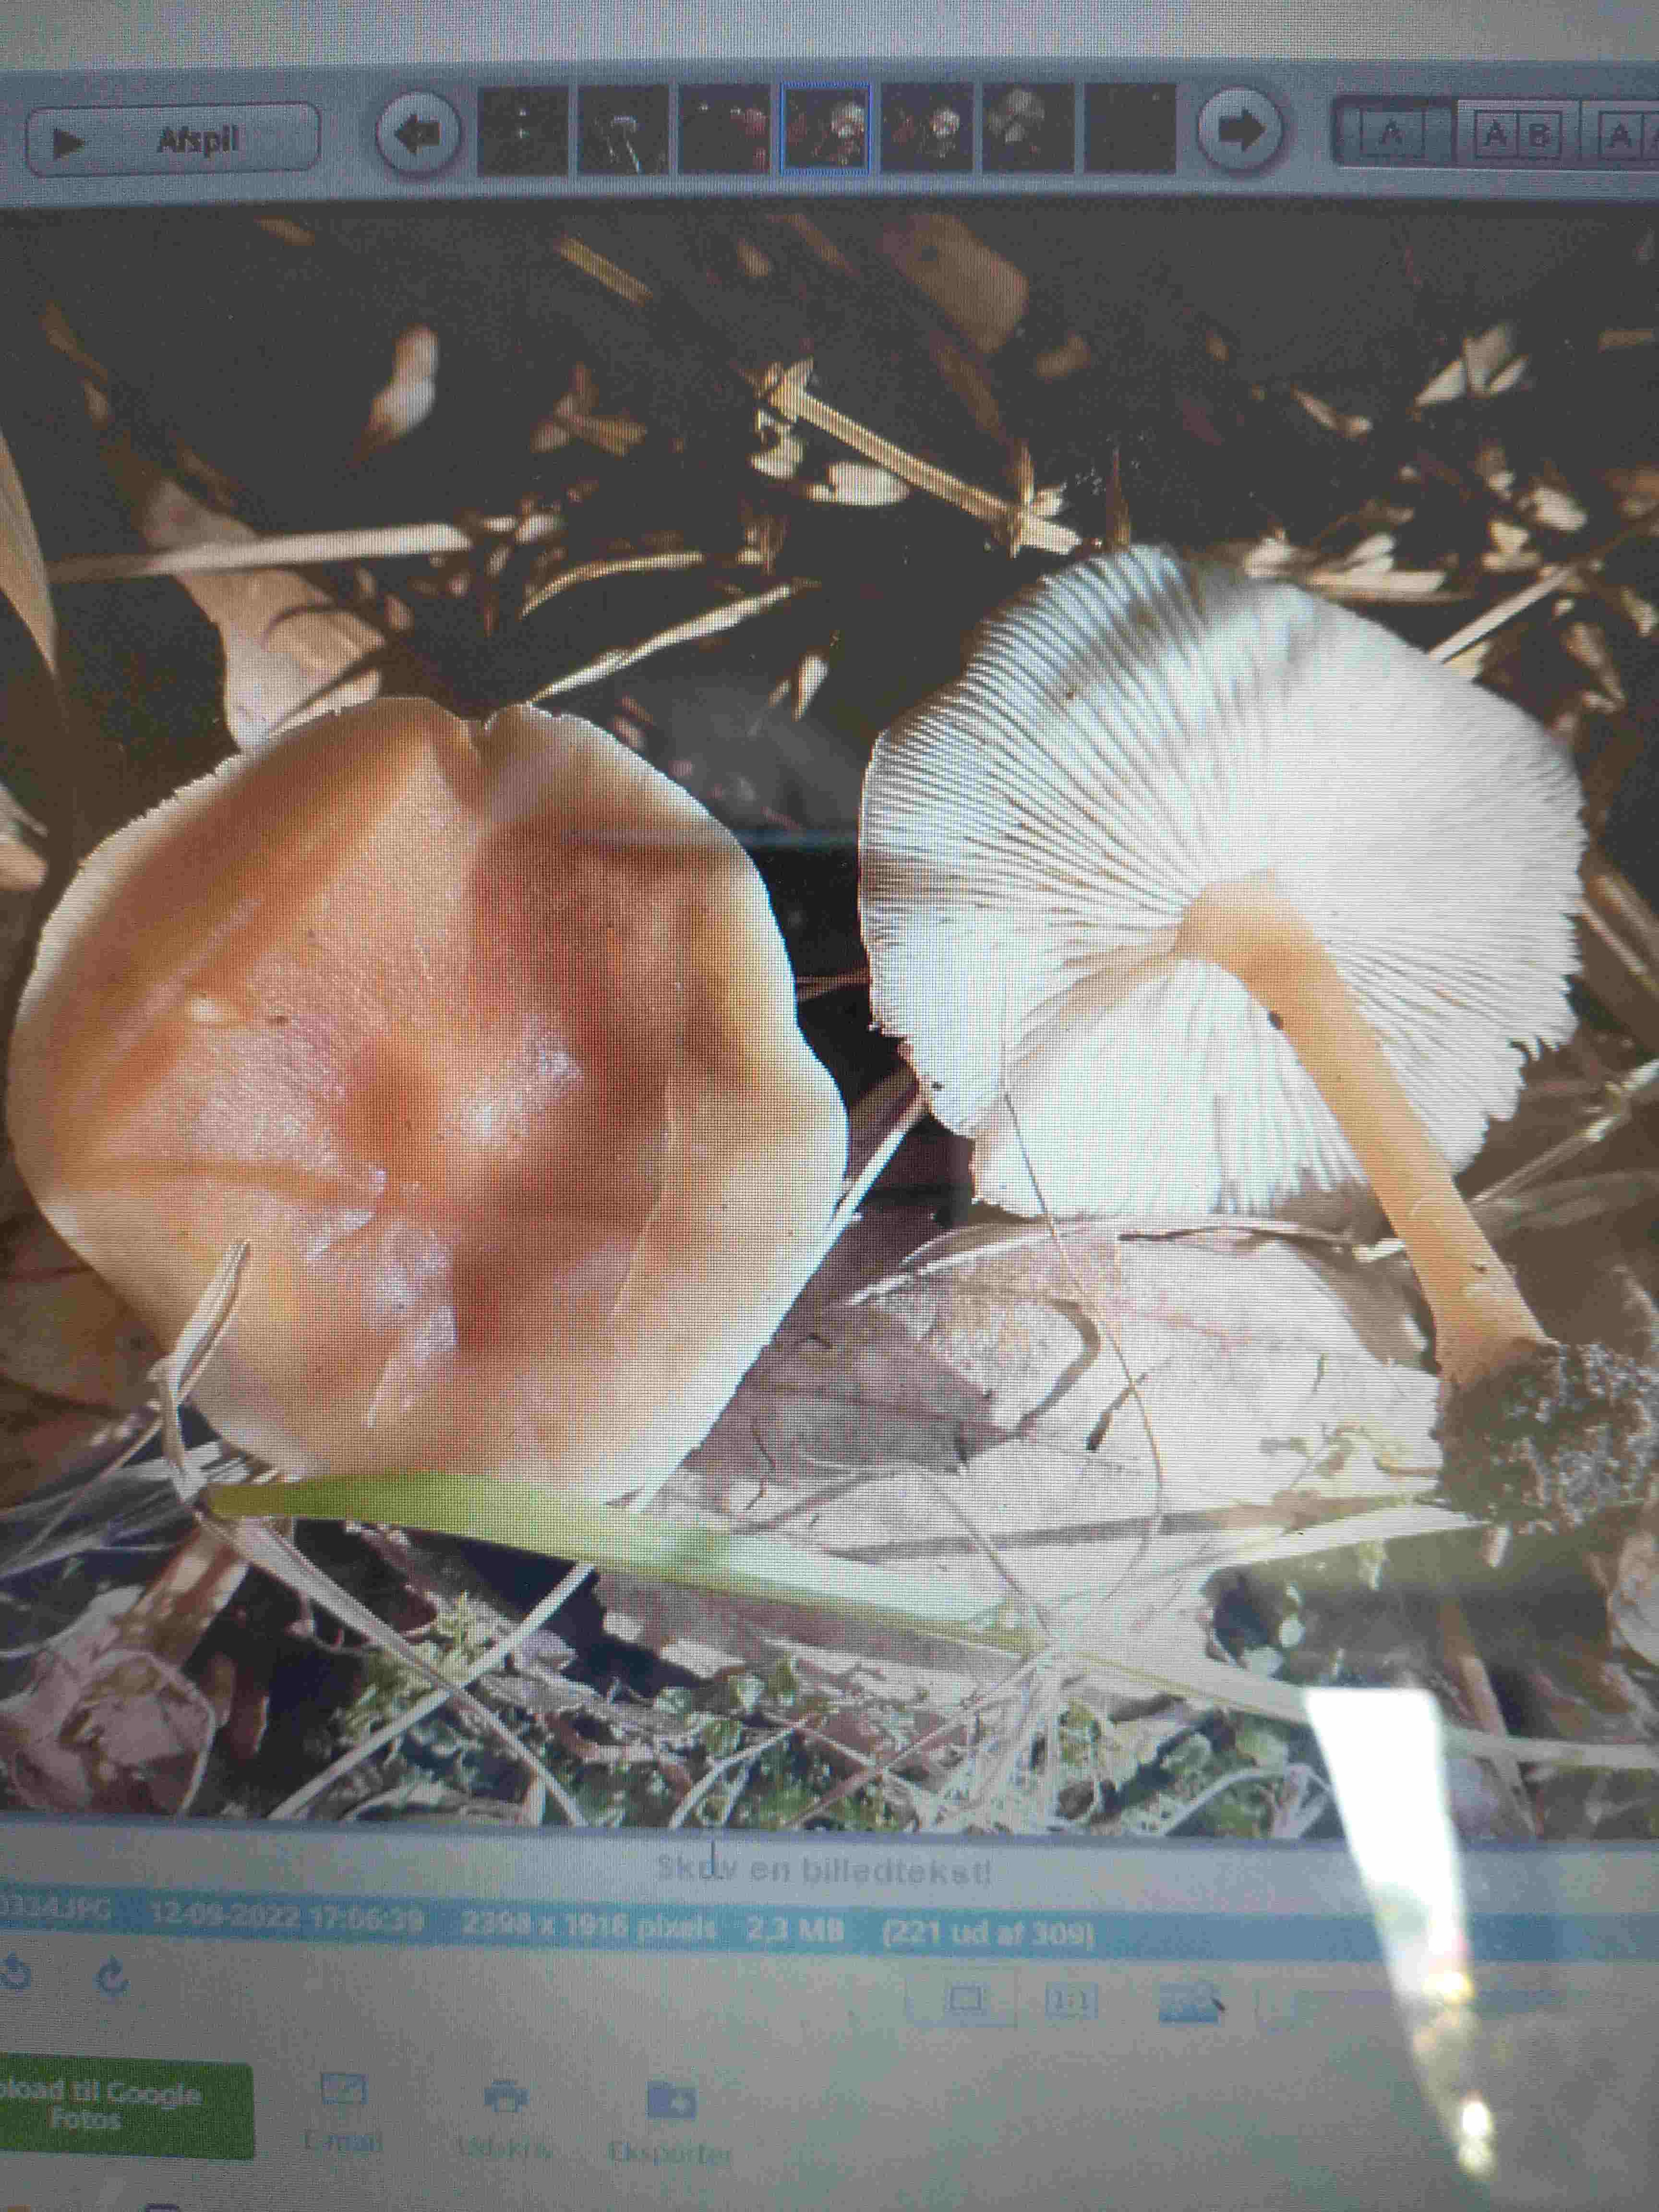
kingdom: Fungi
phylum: Basidiomycota
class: Agaricomycetes
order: Agaricales
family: Omphalotaceae
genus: Gymnopus
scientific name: Gymnopus dryophilus
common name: løv-fladhat
